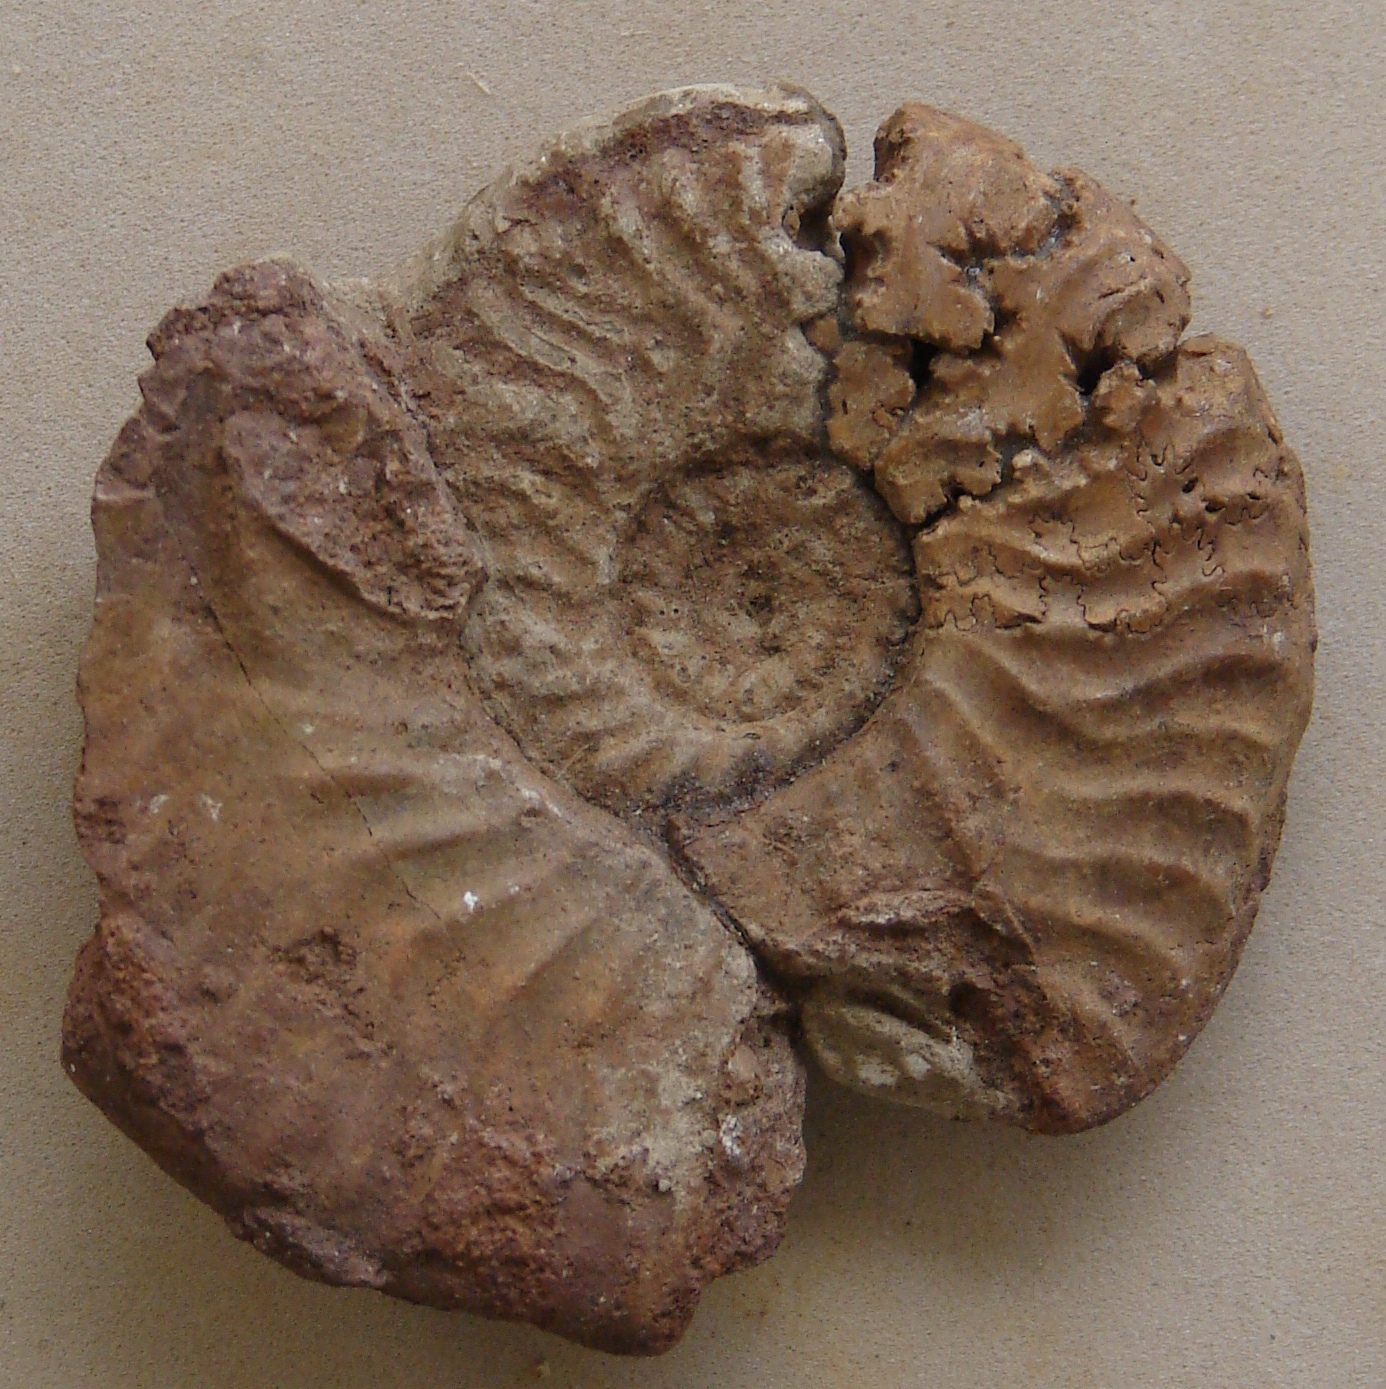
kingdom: Animalia
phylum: Mollusca
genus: Crickia
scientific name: Crickia
